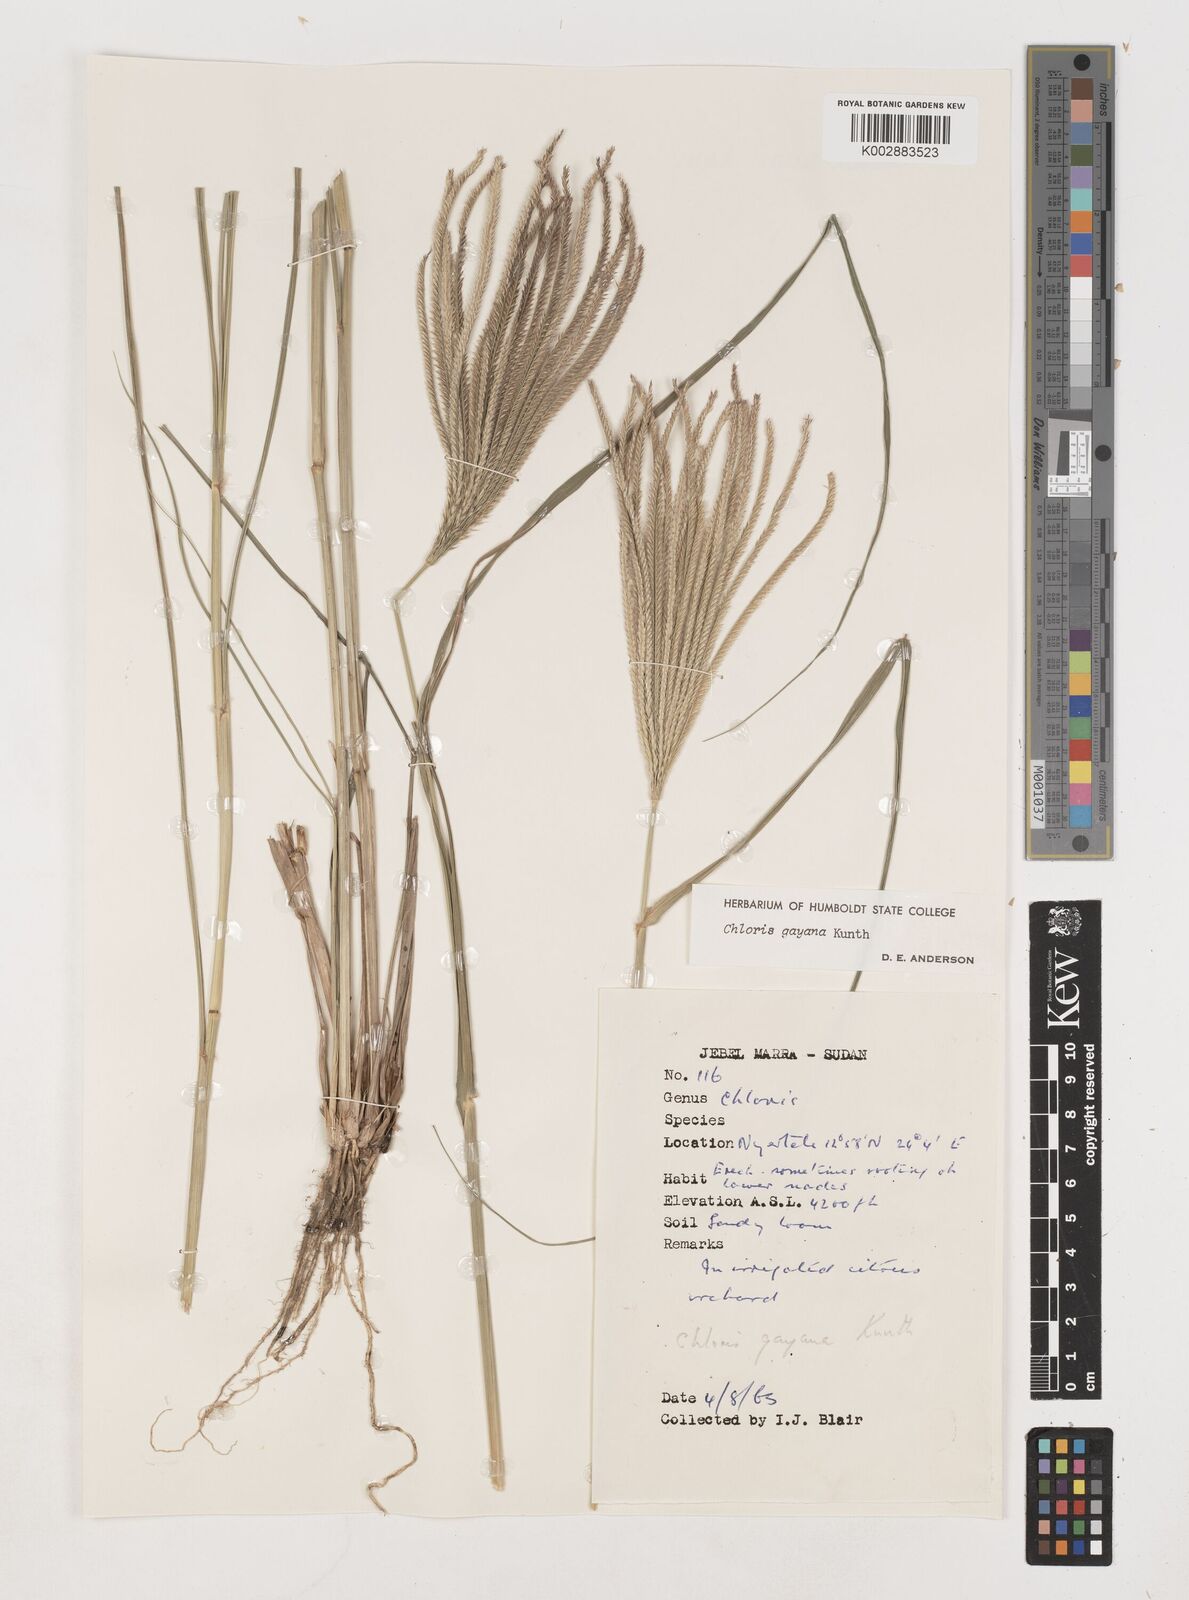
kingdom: Plantae
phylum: Tracheophyta
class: Liliopsida
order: Poales
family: Poaceae
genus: Chloris
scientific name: Chloris gayana
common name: Rhodes grass
